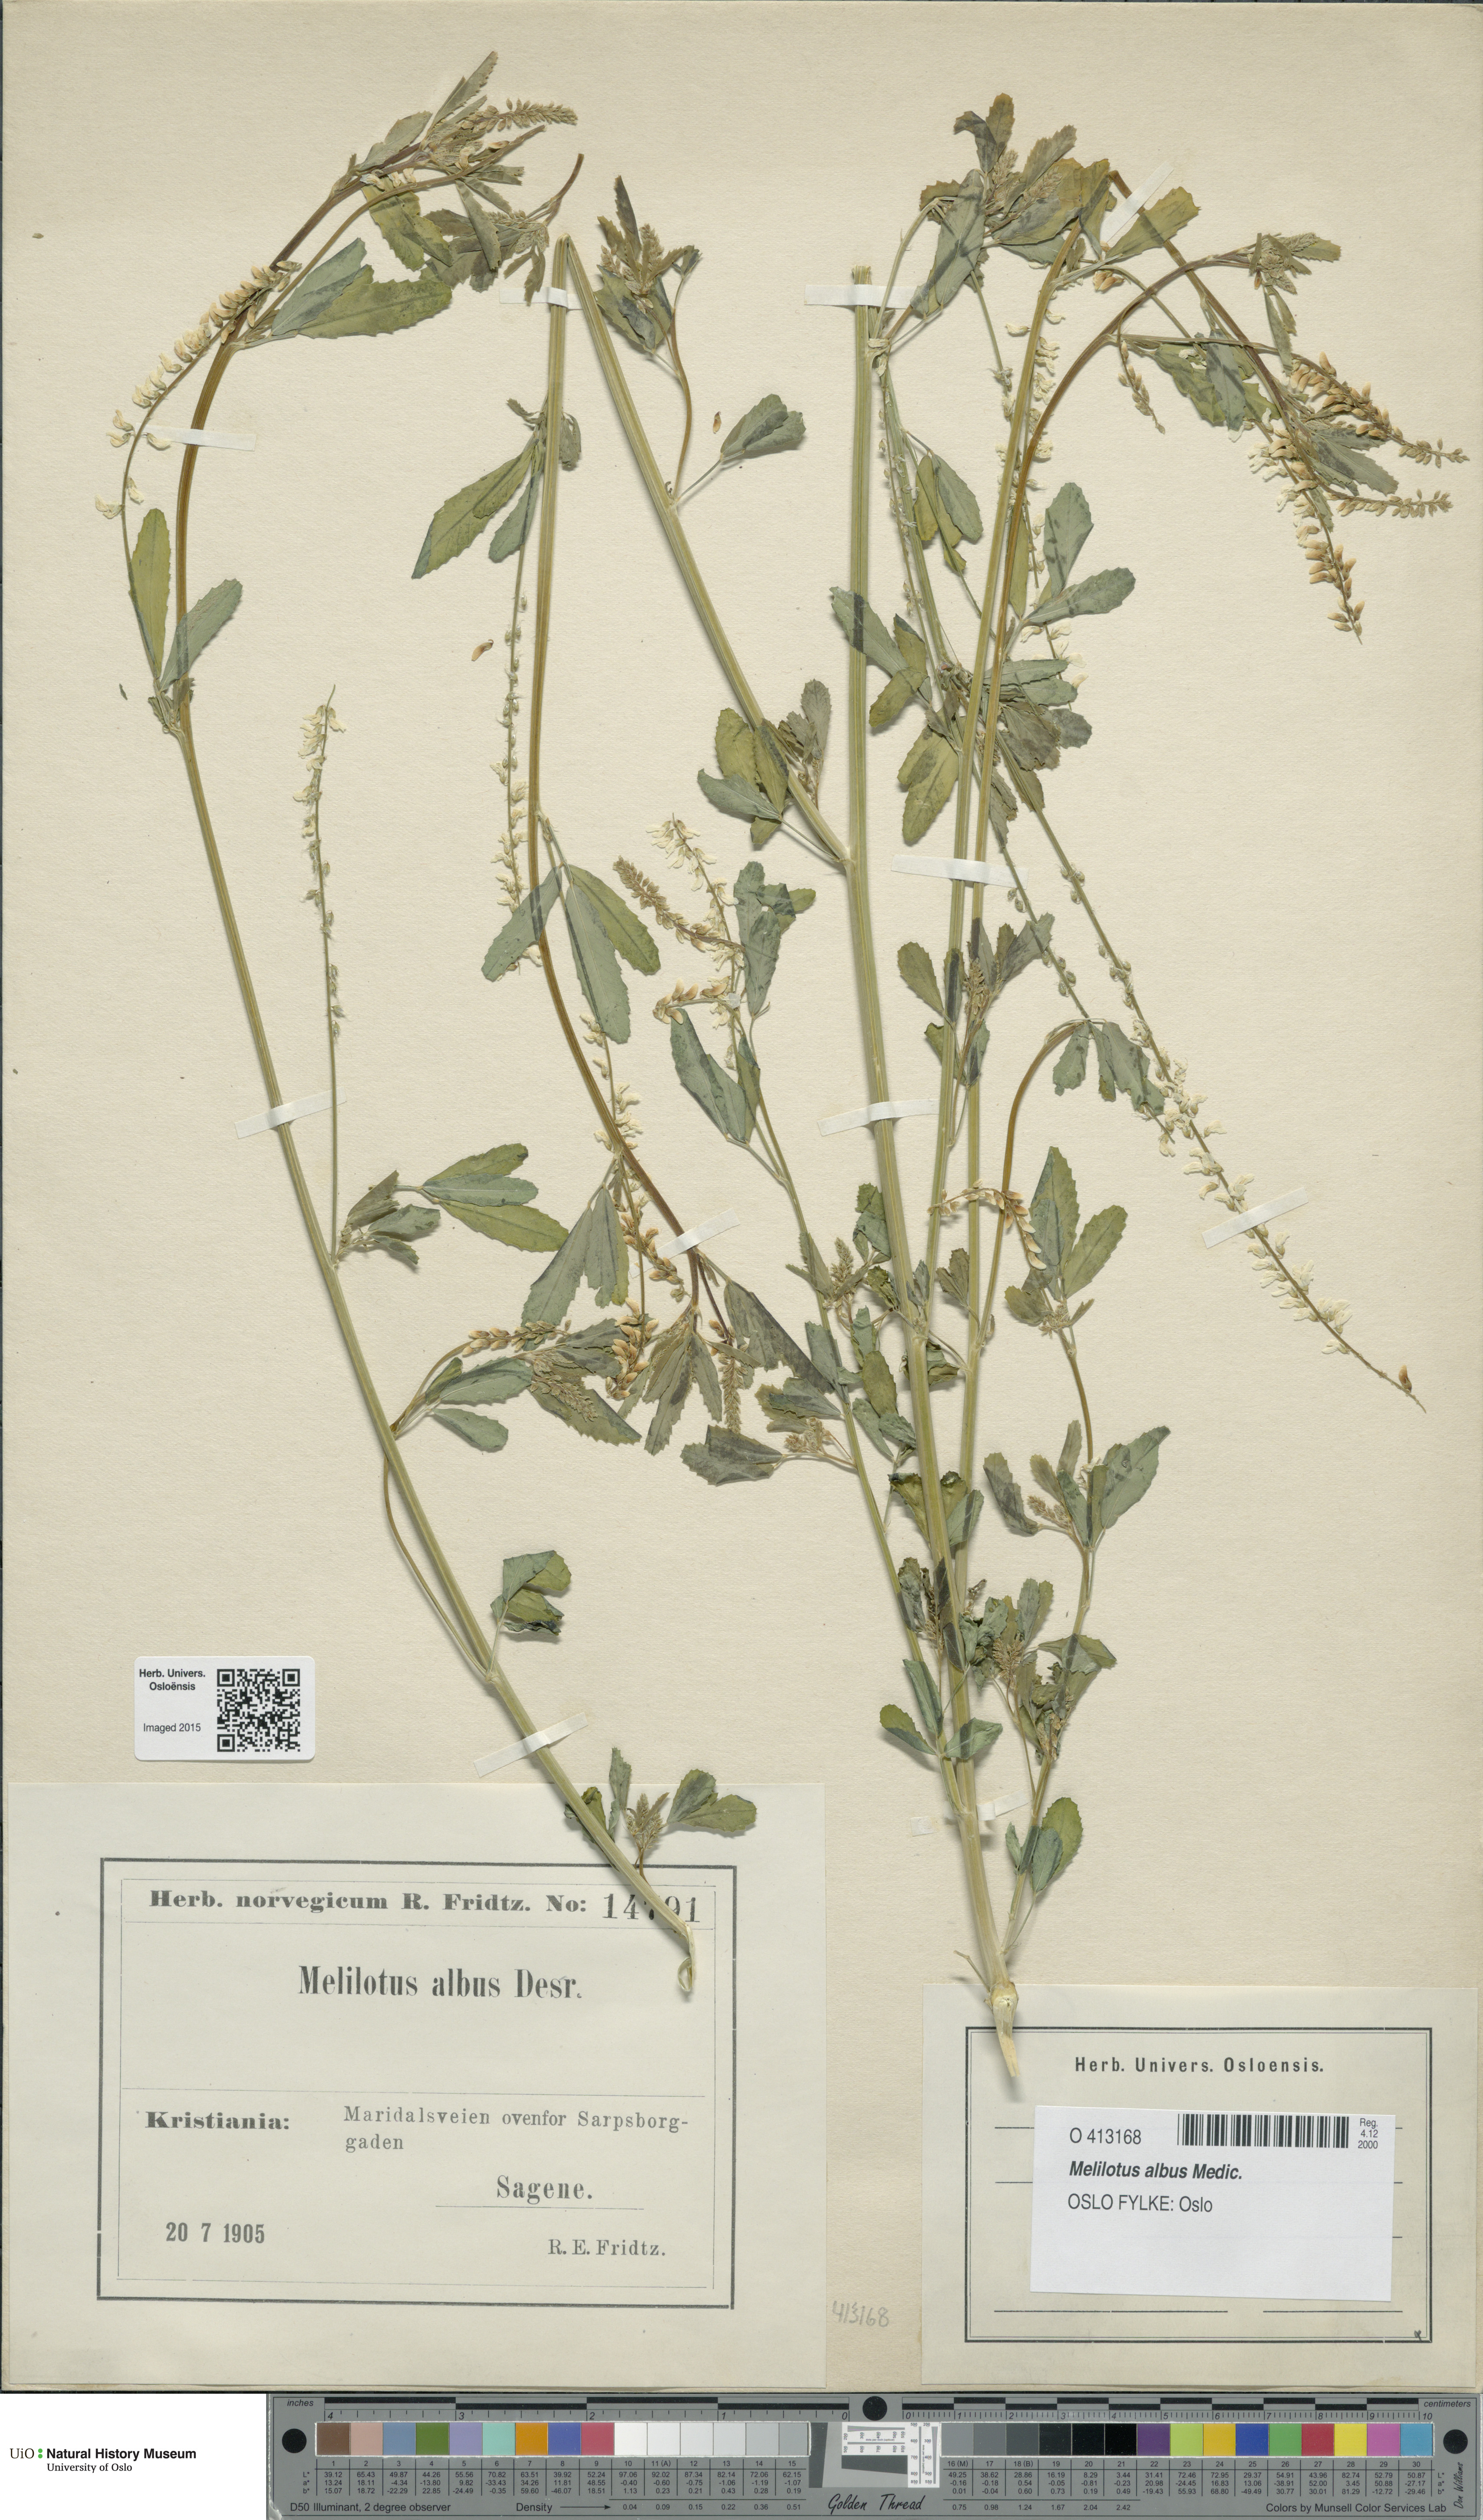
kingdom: Plantae
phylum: Tracheophyta
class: Magnoliopsida
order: Fabales
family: Fabaceae
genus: Melilotus
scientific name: Melilotus albus
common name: White melilot
